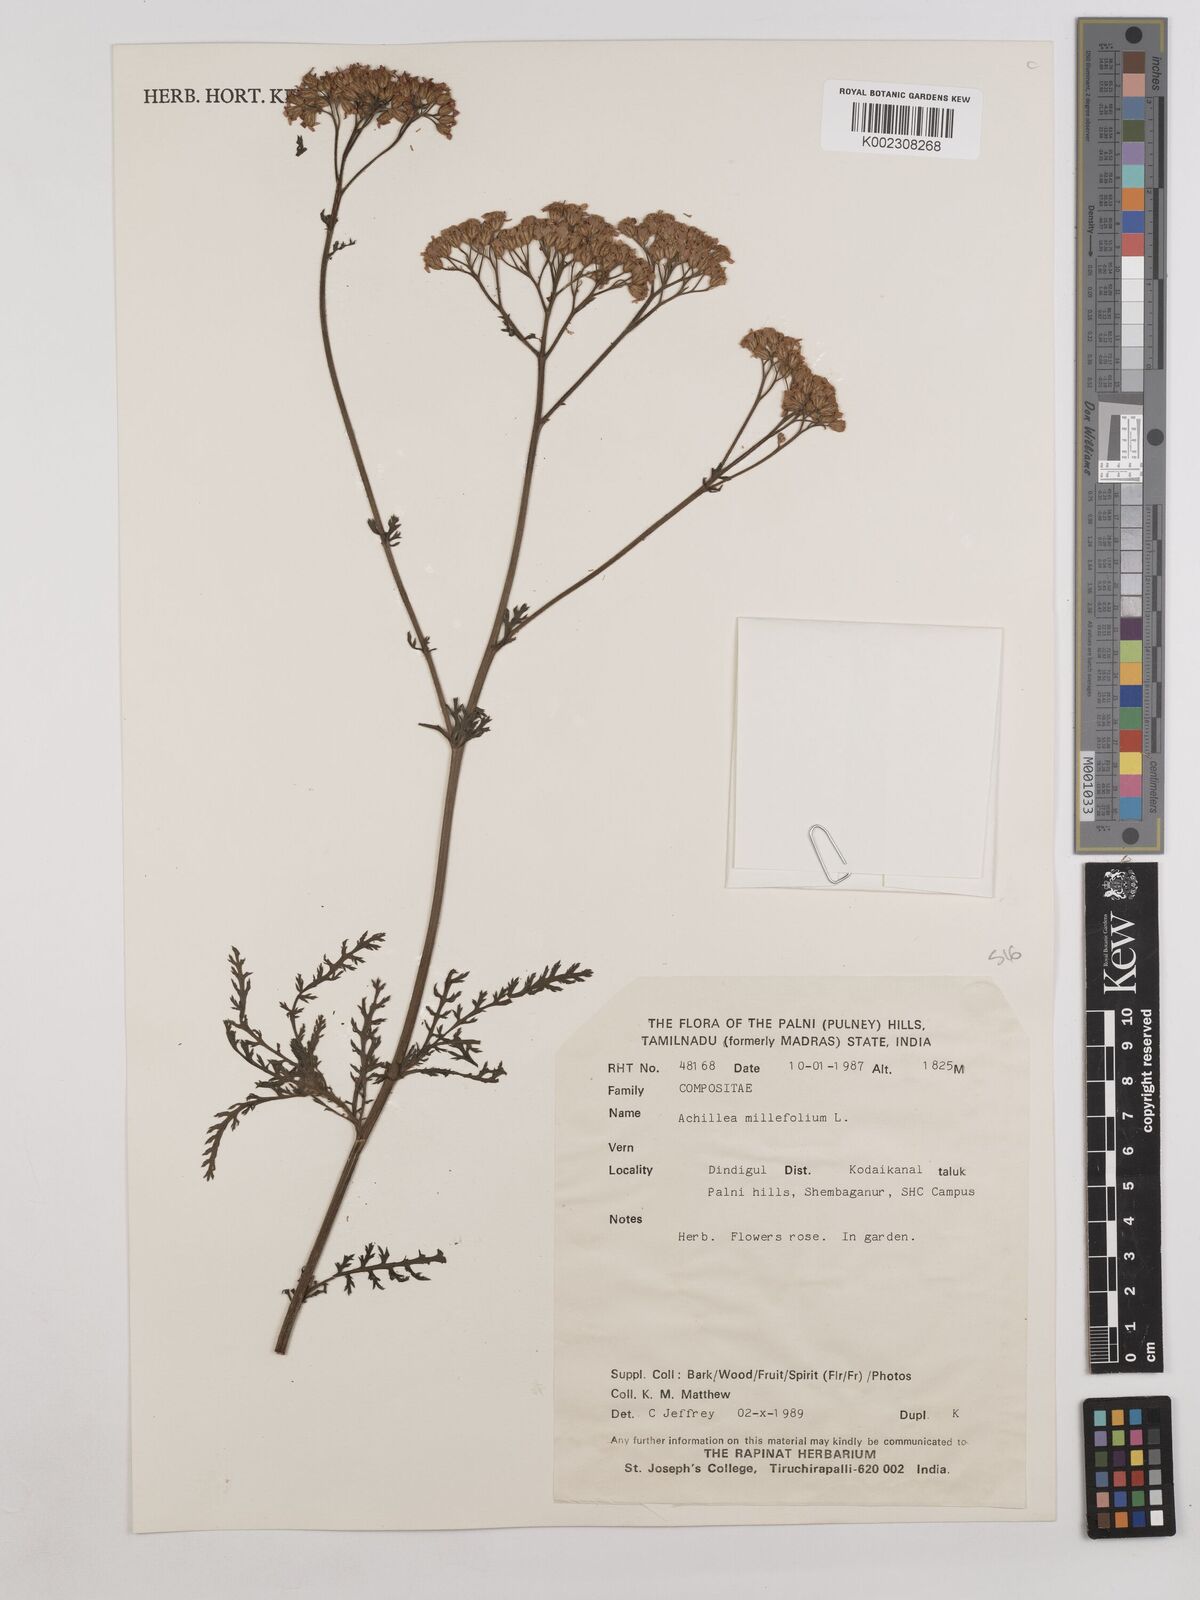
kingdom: Plantae
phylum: Tracheophyta
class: Magnoliopsida
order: Asterales
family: Asteraceae
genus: Achillea
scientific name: Achillea millefolium
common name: Yarrow
